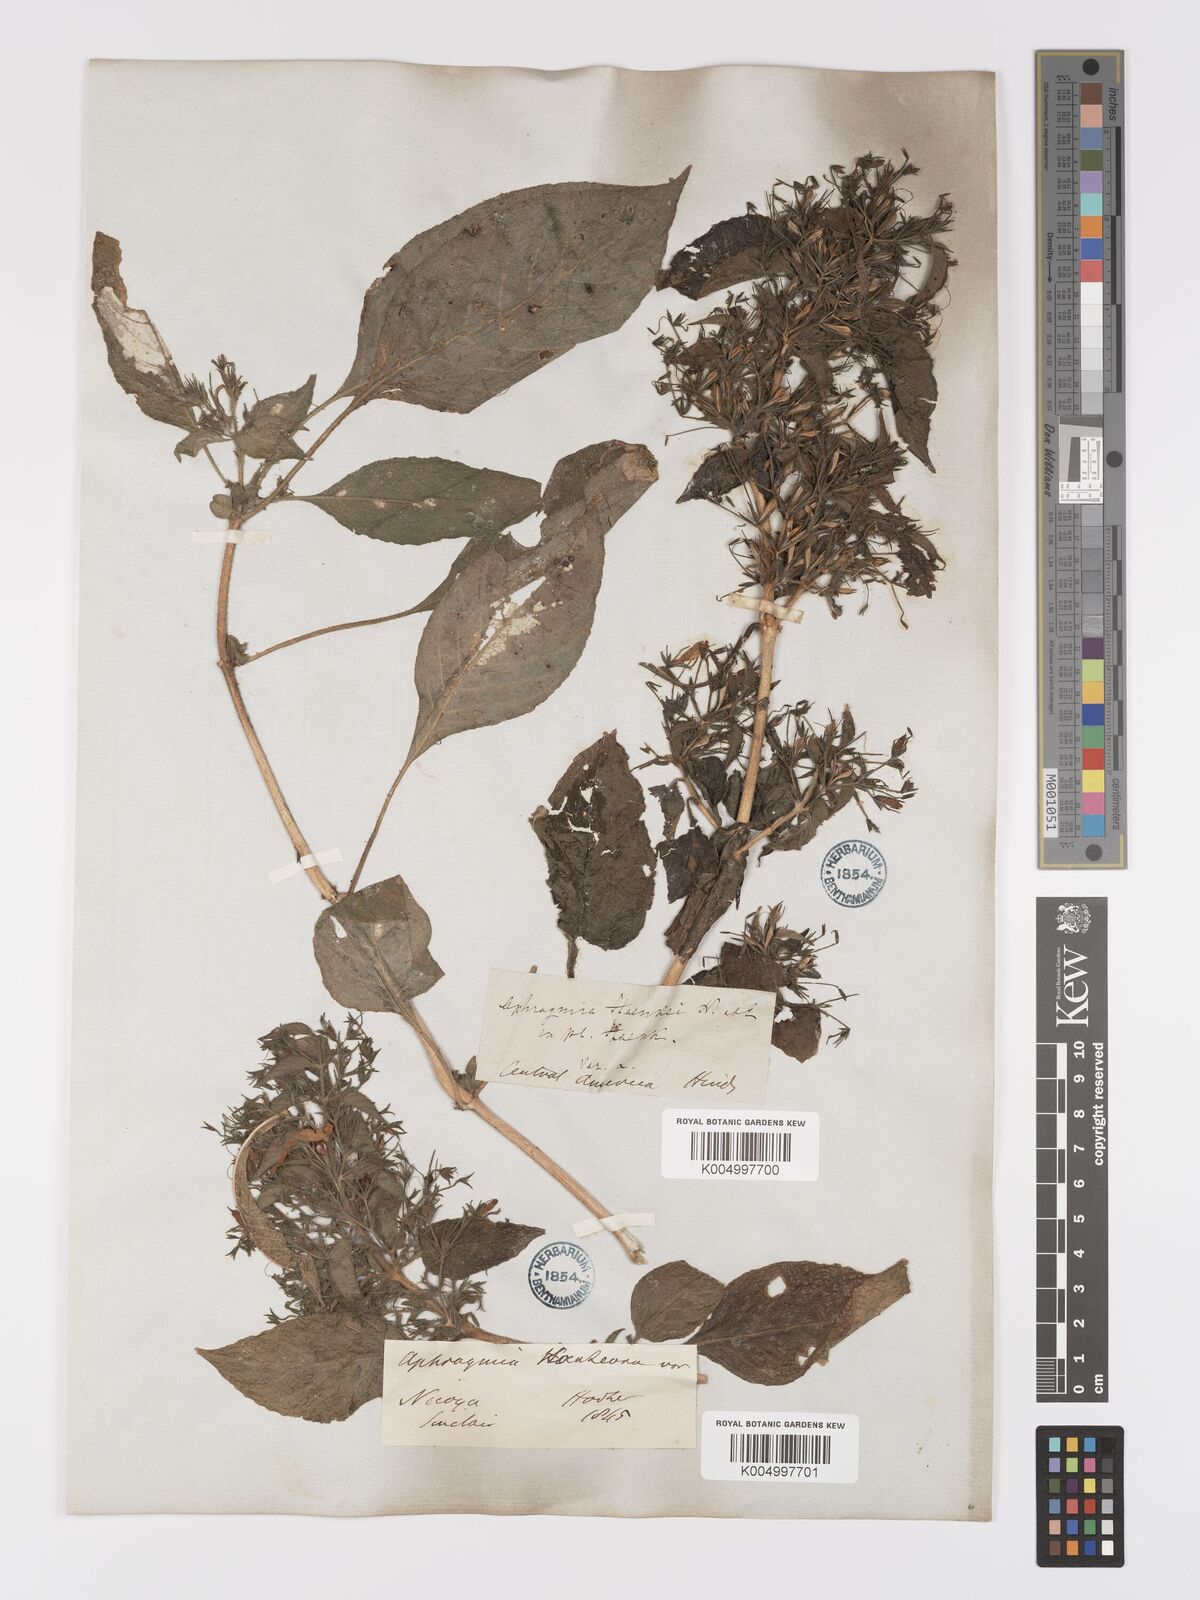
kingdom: Plantae
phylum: Tracheophyta
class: Magnoliopsida
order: Lamiales
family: Acanthaceae
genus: Ruellia
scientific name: Ruellia inundata
